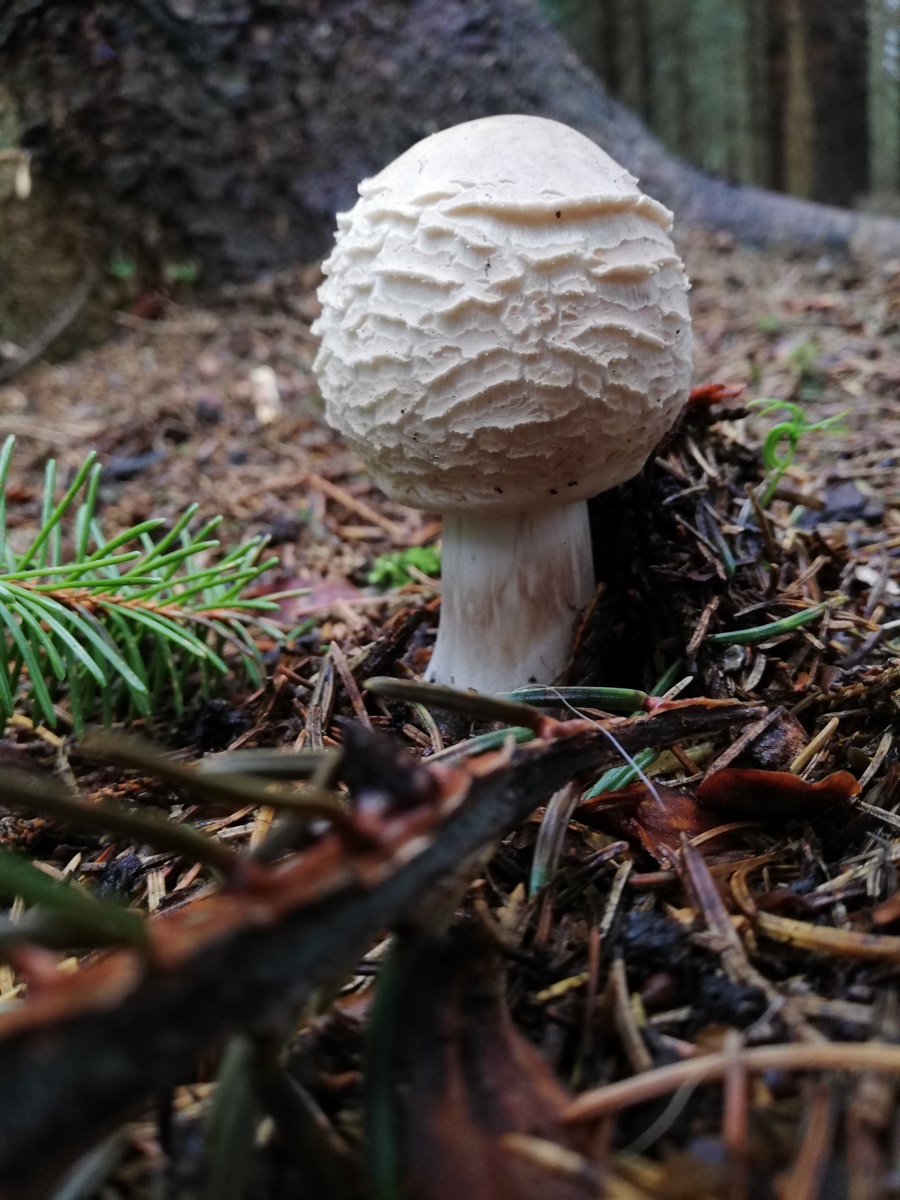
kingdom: Fungi
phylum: Basidiomycota
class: Agaricomycetes
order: Agaricales
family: Agaricaceae
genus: Chlorophyllum
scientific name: Chlorophyllum
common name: rabarberhat
